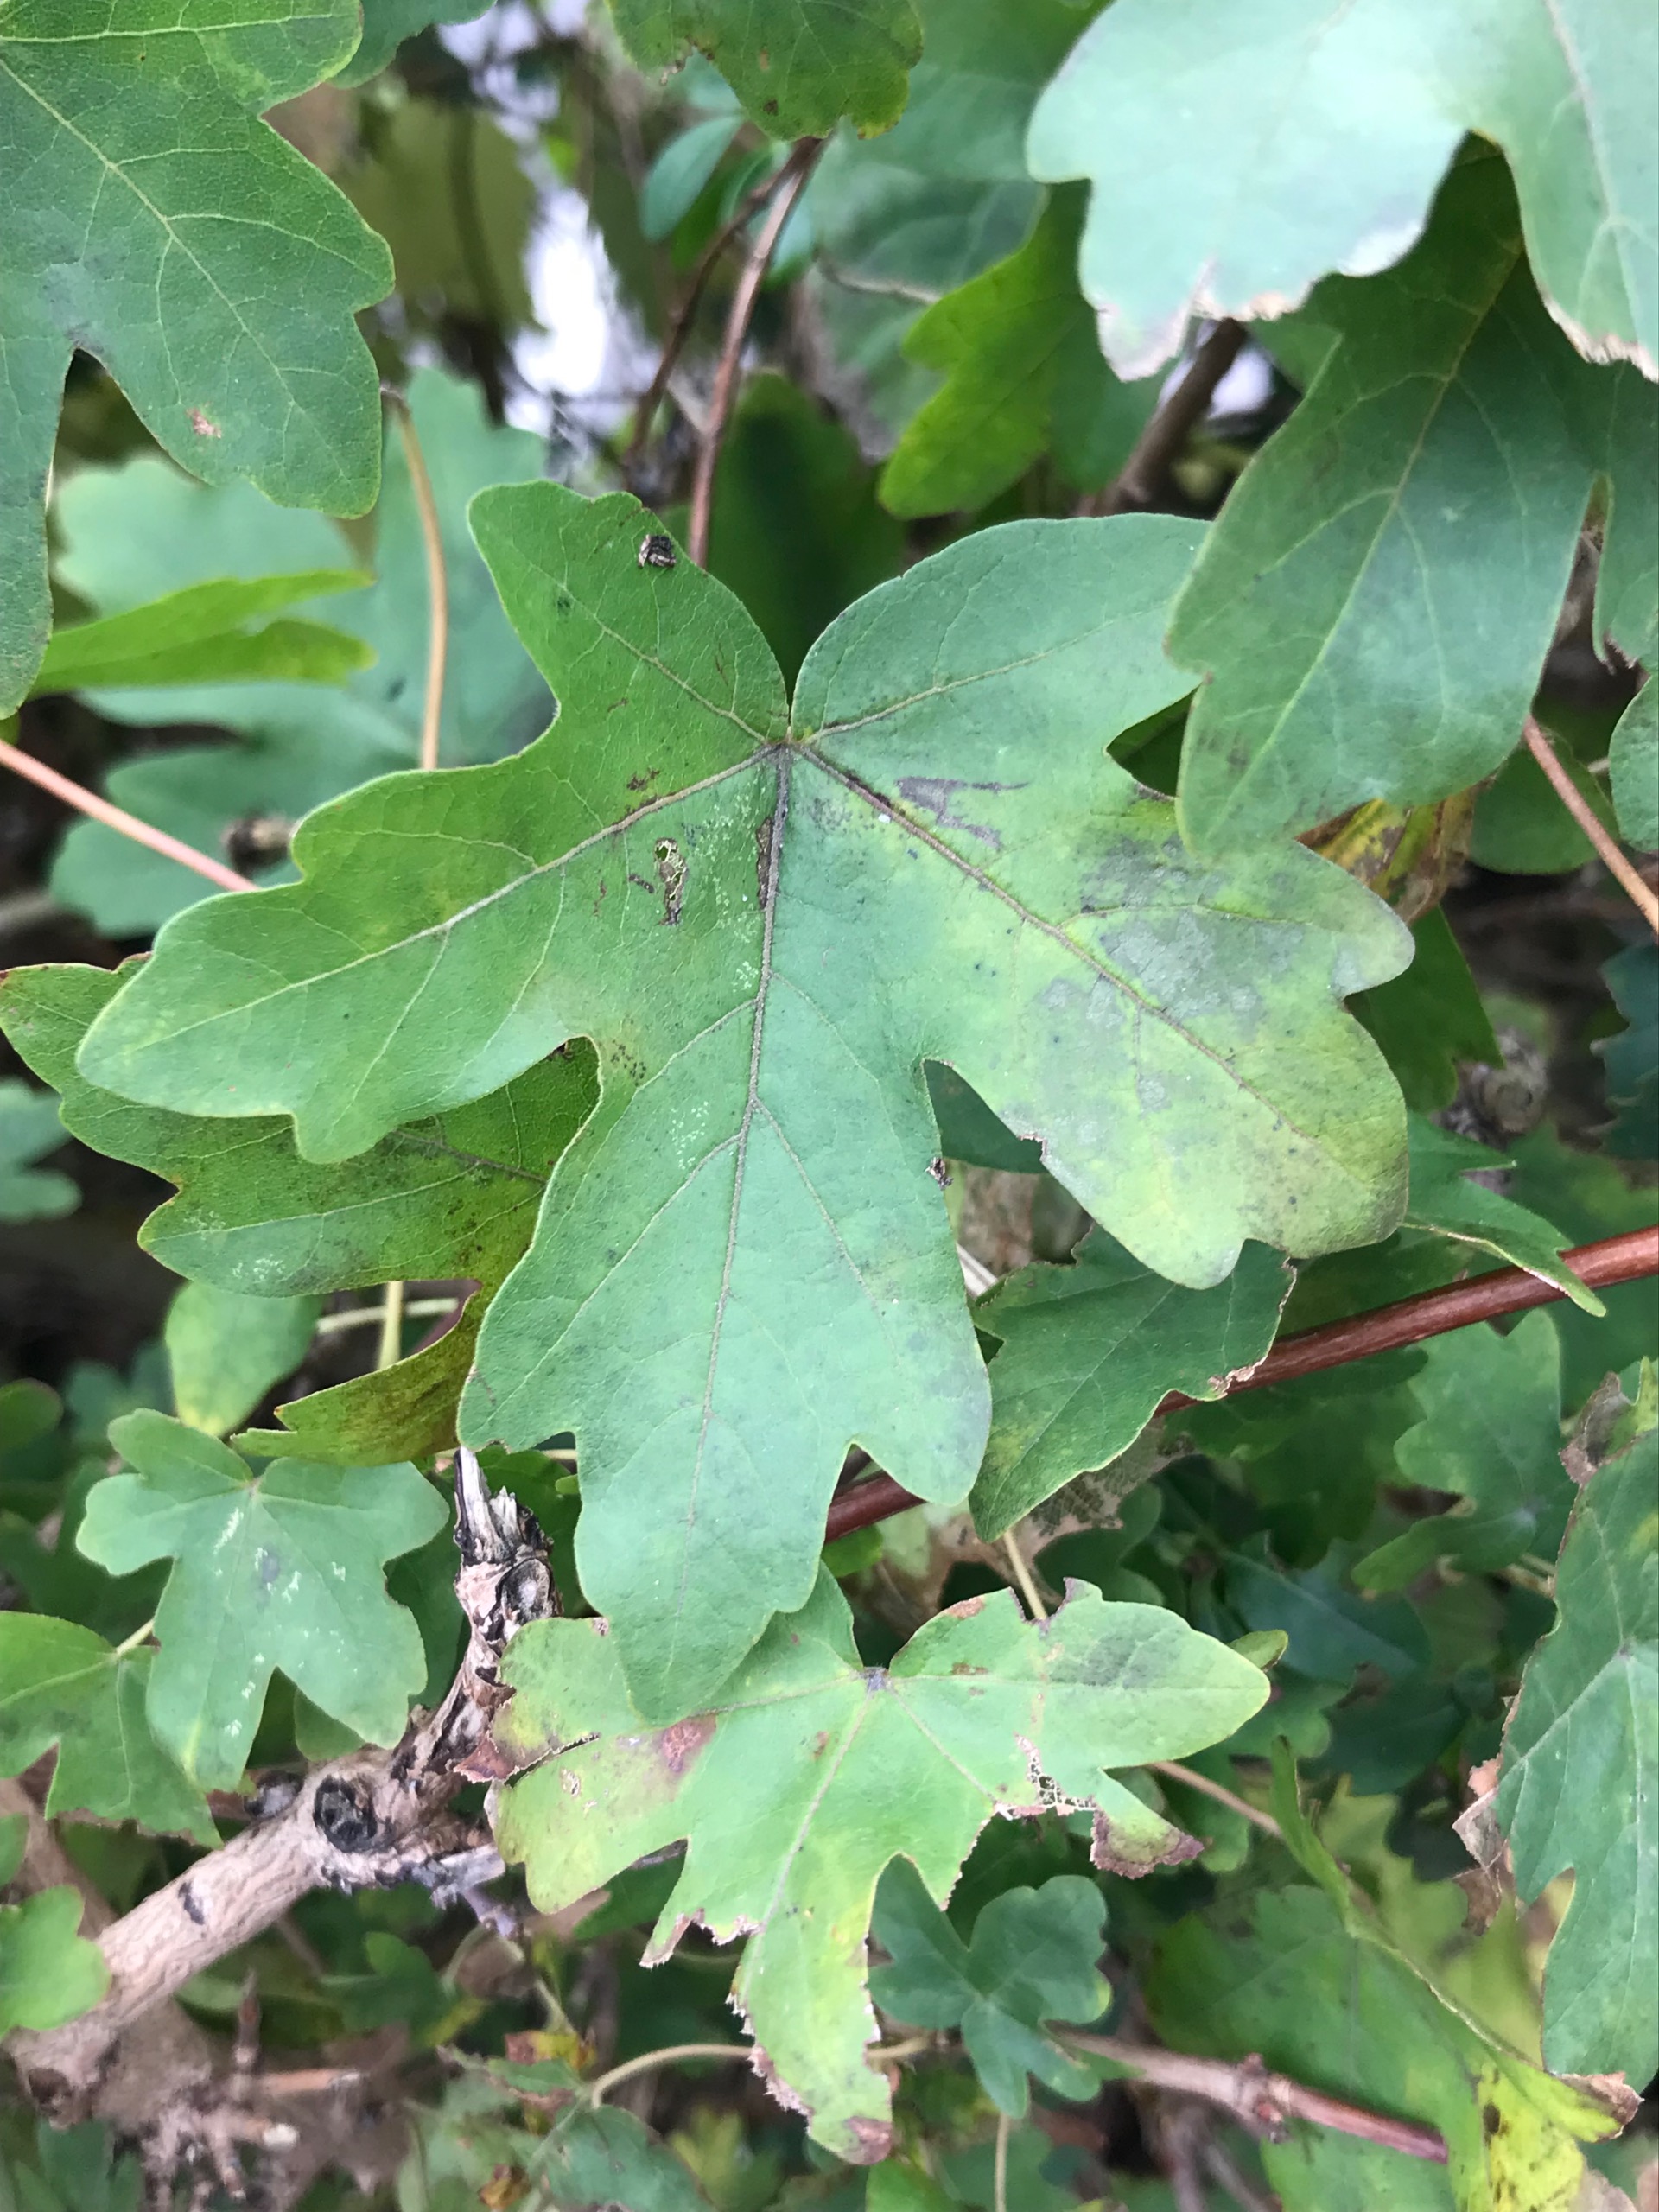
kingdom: Plantae
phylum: Tracheophyta
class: Magnoliopsida
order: Sapindales
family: Sapindaceae
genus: Acer
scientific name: Acer campestre
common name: Navr
